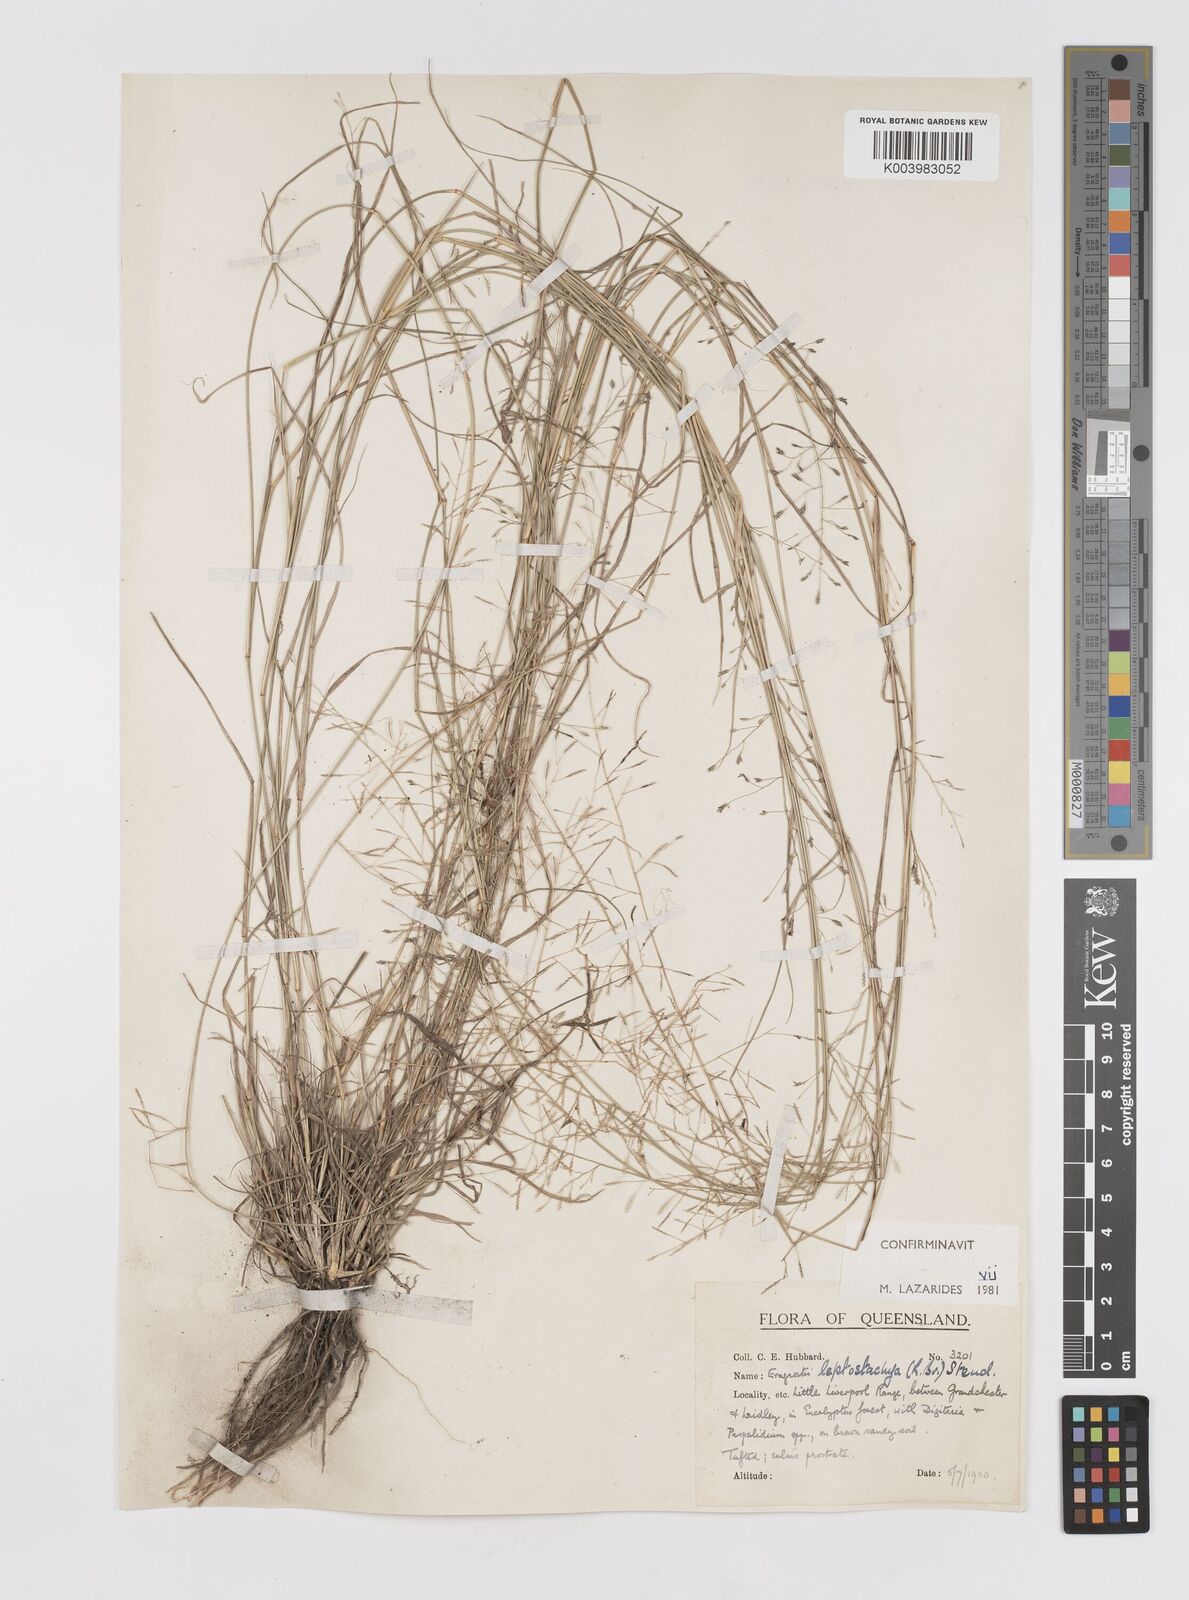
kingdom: Plantae
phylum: Tracheophyta
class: Liliopsida
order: Poales
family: Poaceae
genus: Eragrostis
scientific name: Eragrostis leptostachya
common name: Australian lovegrass
